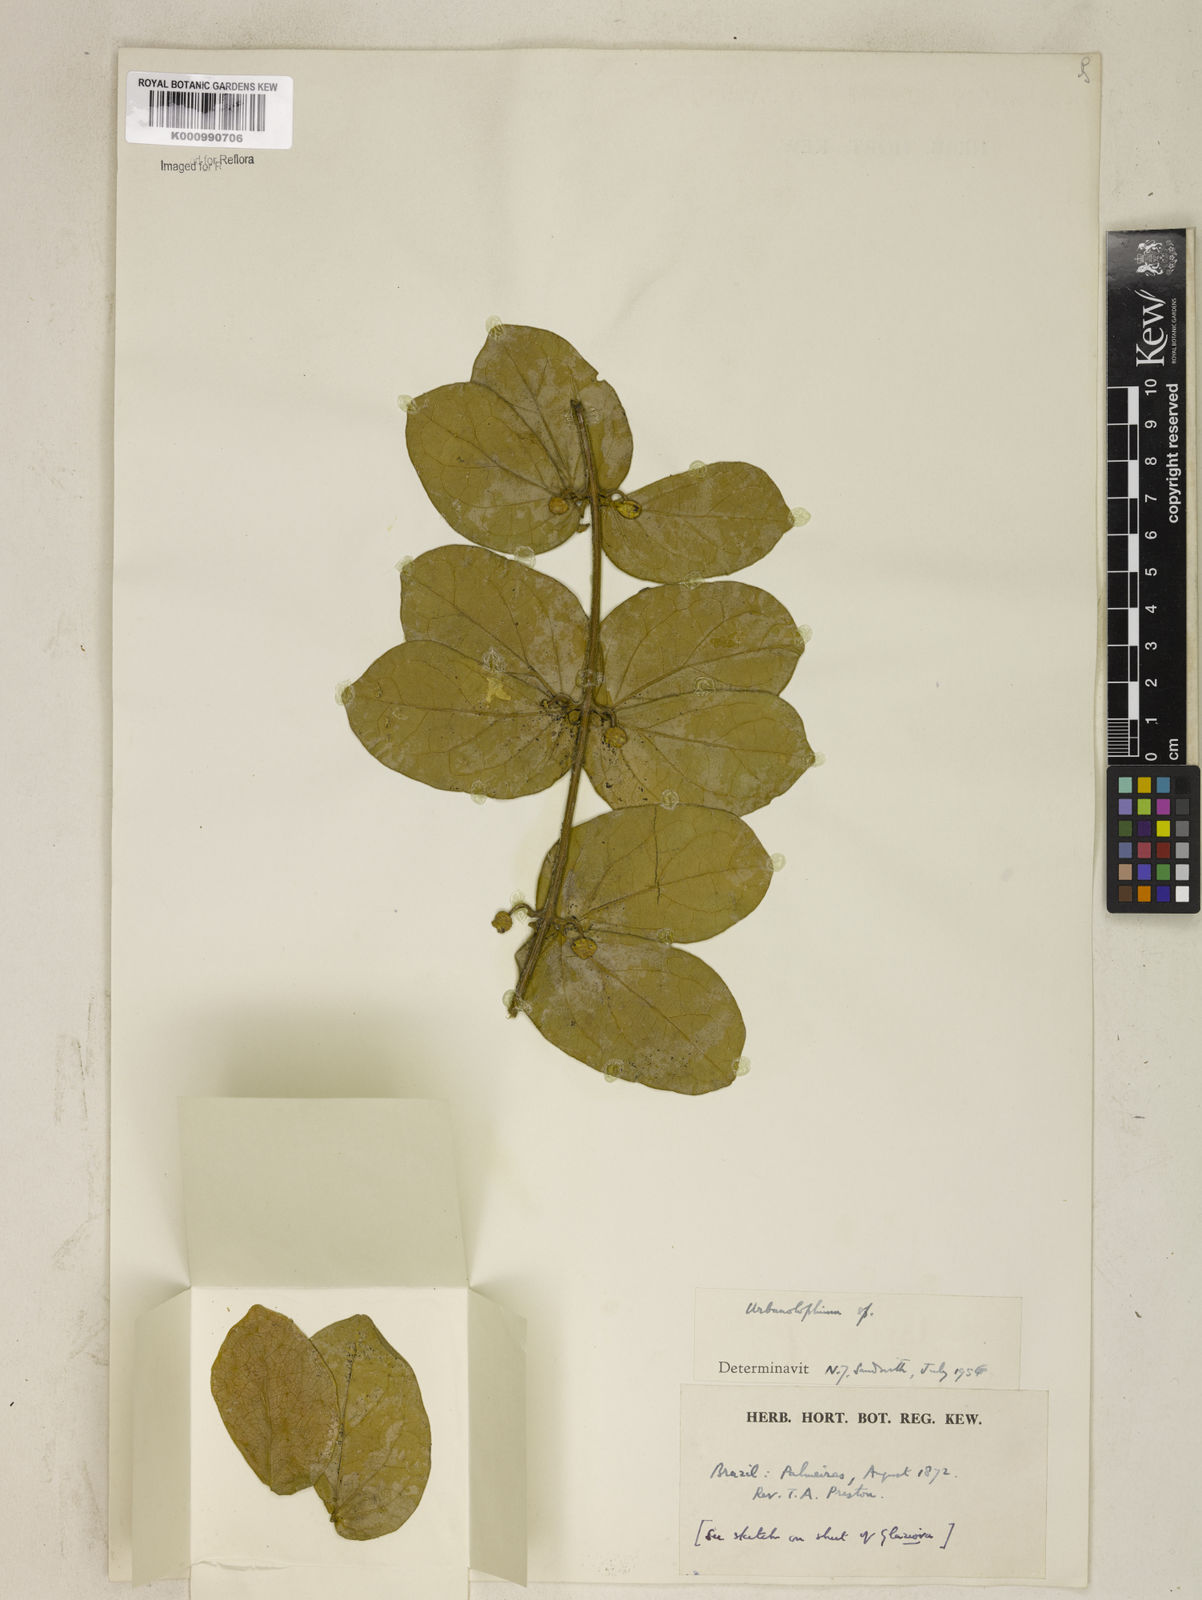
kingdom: Plantae
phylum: Tracheophyta
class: Magnoliopsida
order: Lamiales
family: Bignoniaceae
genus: Amphilophium
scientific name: Amphilophium
